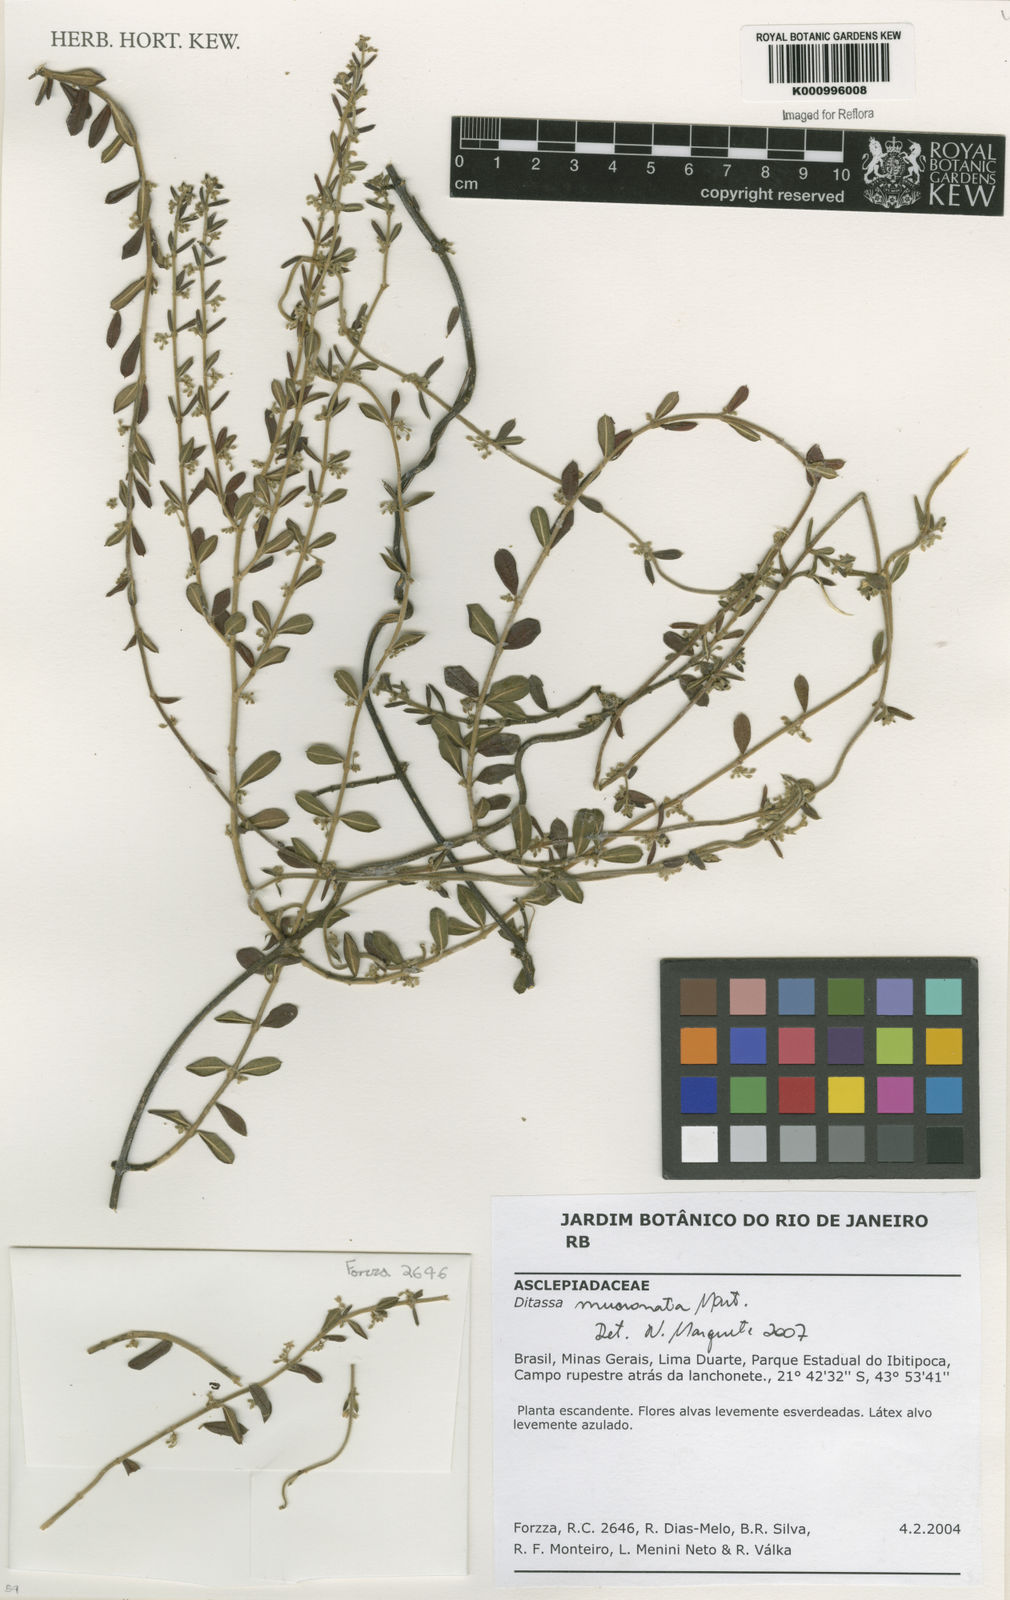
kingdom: Plantae
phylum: Tracheophyta
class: Magnoliopsida
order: Gentianales
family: Apocynaceae
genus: Ditassa
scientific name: Ditassa mucronata
